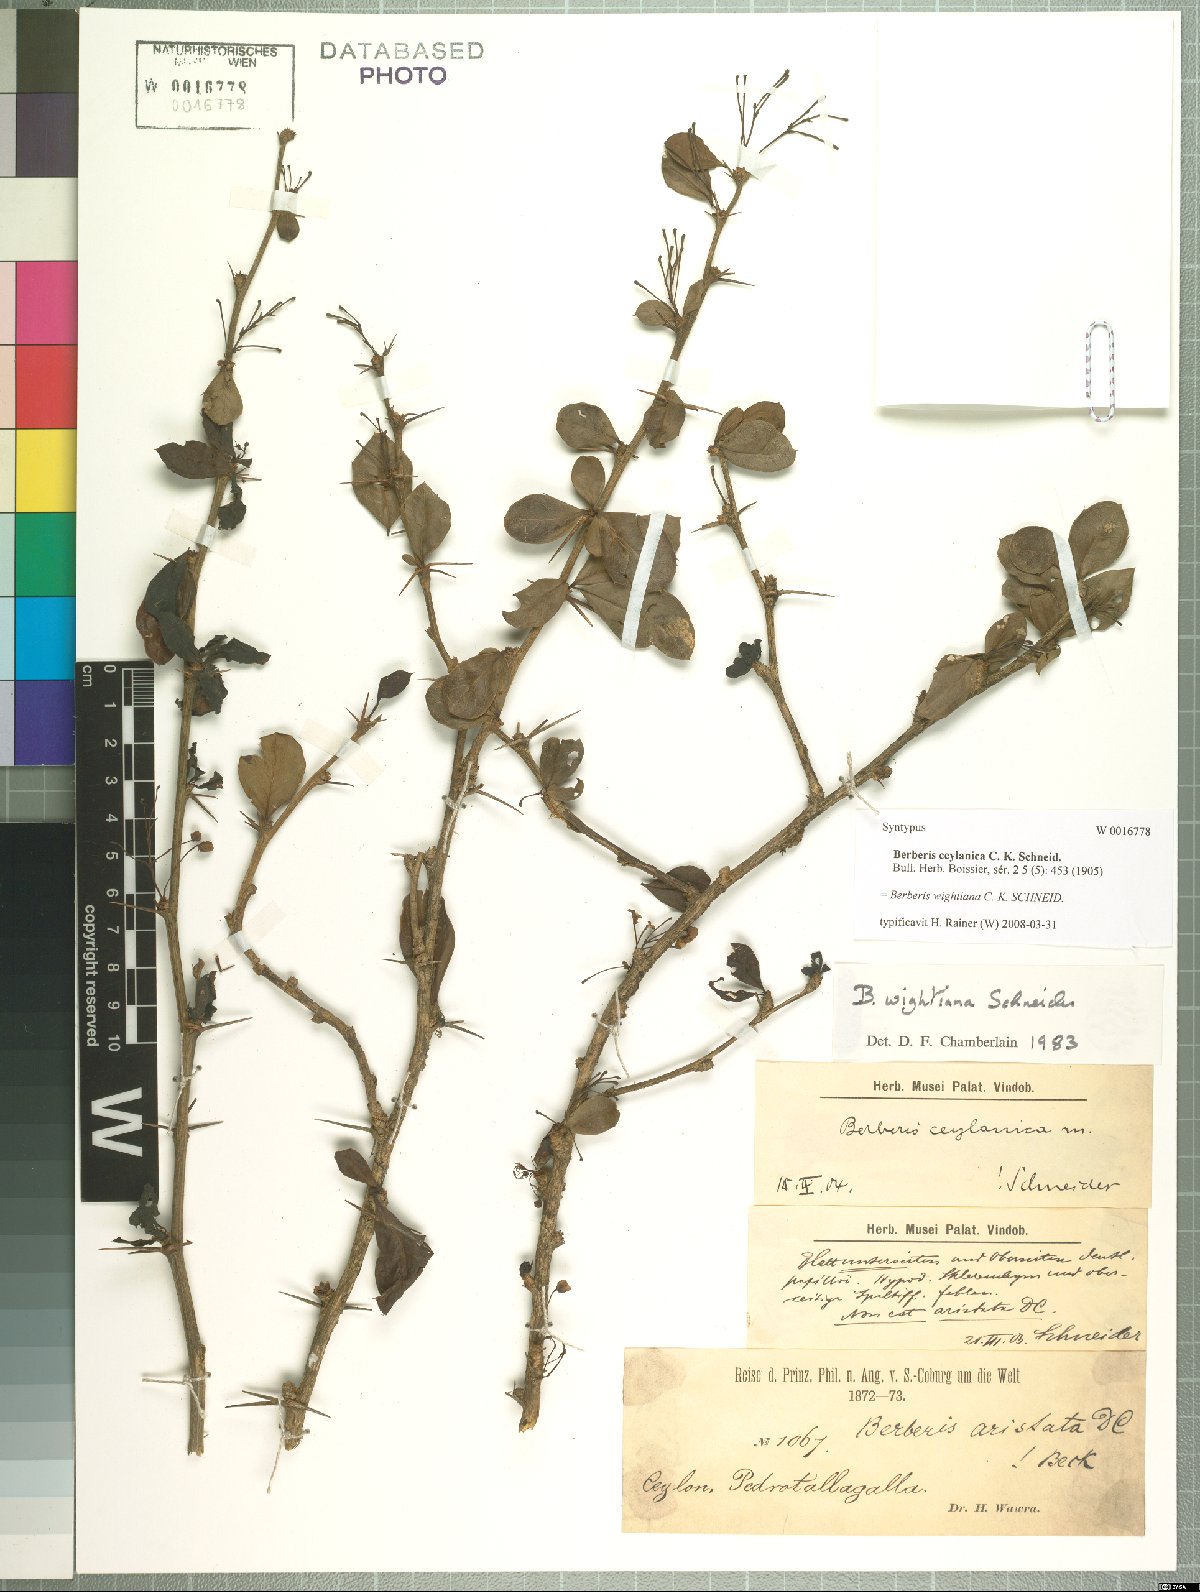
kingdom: Plantae
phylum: Tracheophyta
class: Magnoliopsida
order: Ranunculales
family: Berberidaceae
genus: Berberis
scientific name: Berberis wightiana
